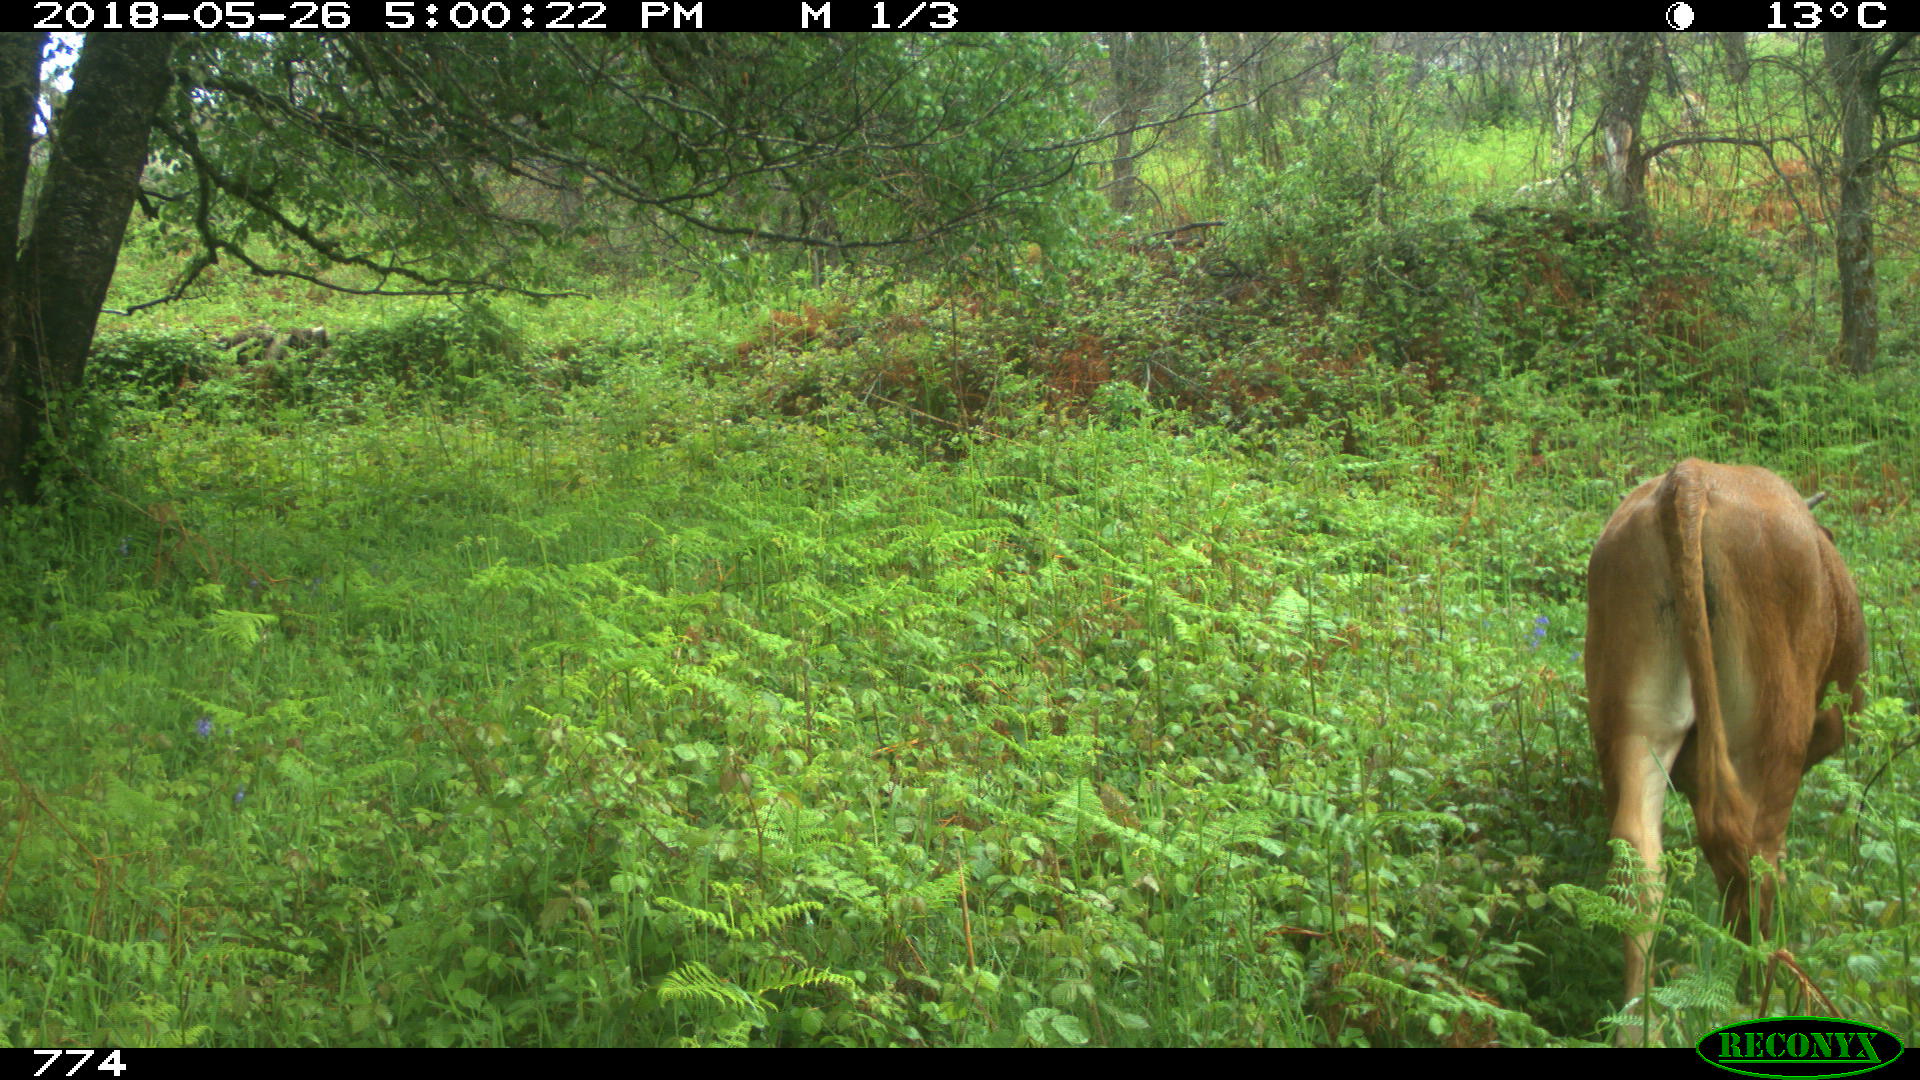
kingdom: Animalia
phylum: Chordata
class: Mammalia
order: Artiodactyla
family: Bovidae
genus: Bos
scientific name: Bos taurus
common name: Domesticated cattle
